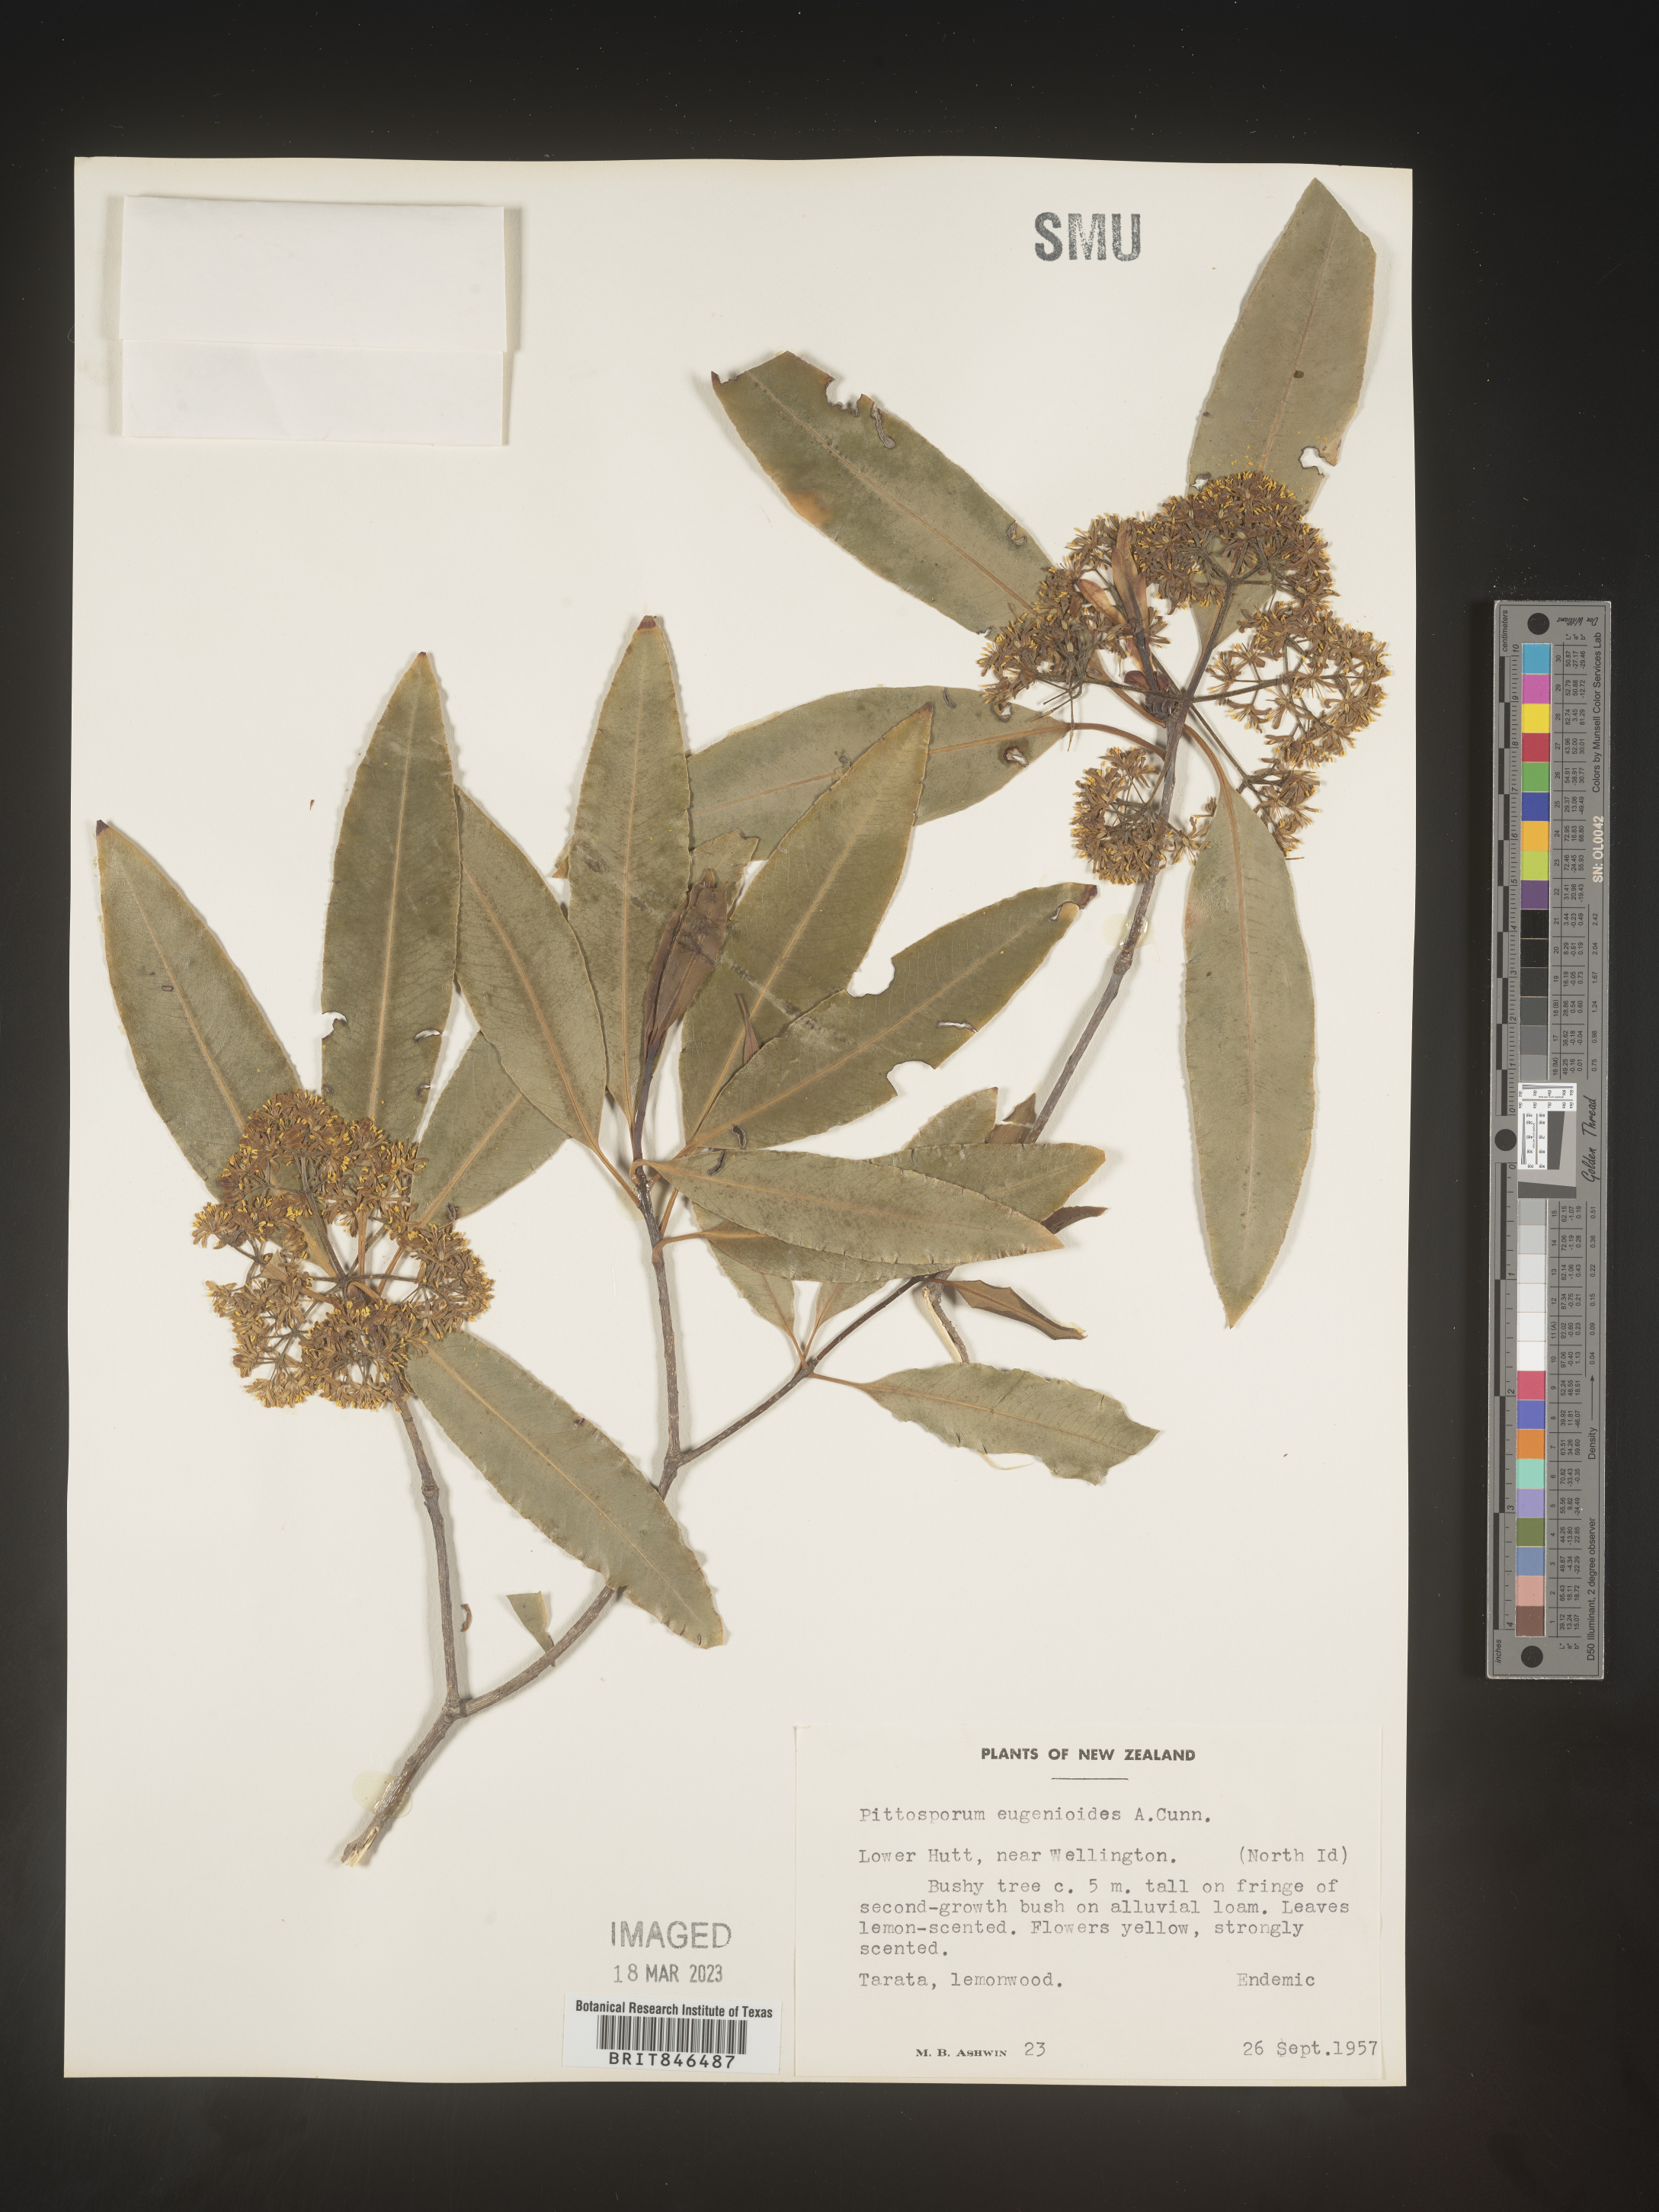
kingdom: Plantae
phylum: Tracheophyta
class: Magnoliopsida
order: Apiales
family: Pittosporaceae
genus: Pittosporum
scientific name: Pittosporum
